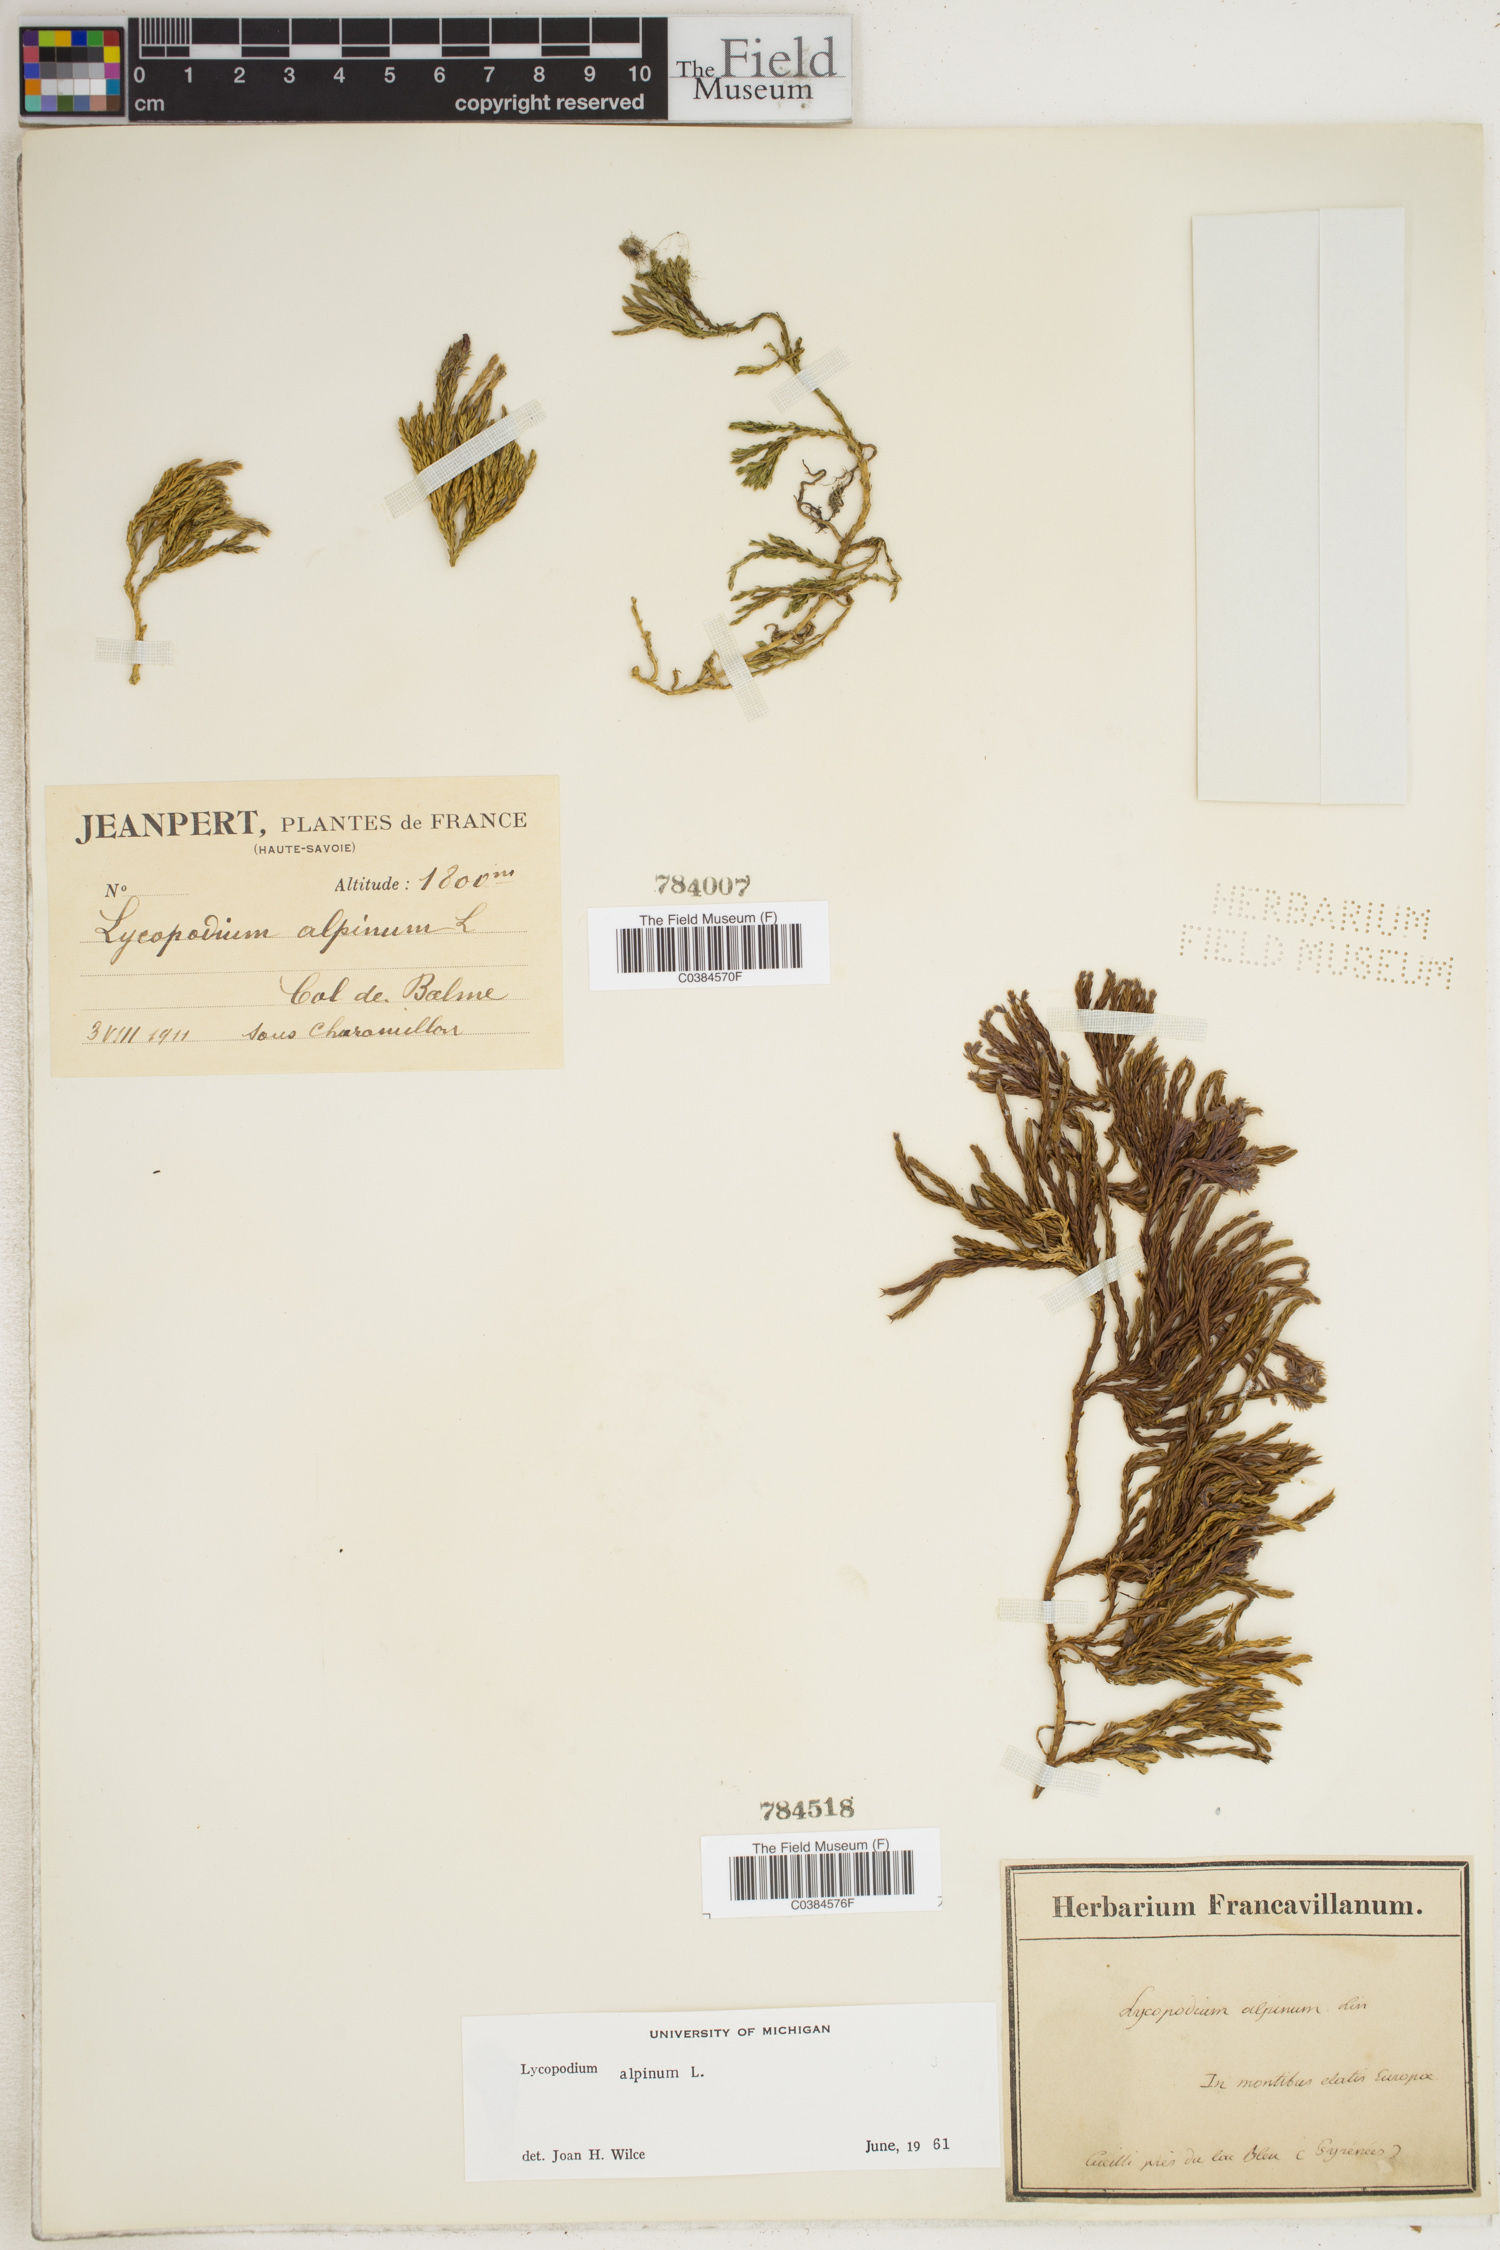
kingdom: Plantae
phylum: Tracheophyta
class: Lycopodiopsida
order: Lycopodiales
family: Lycopodiaceae
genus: Diphasiastrum
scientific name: Diphasiastrum alpinum
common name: Alpine clubmoss
